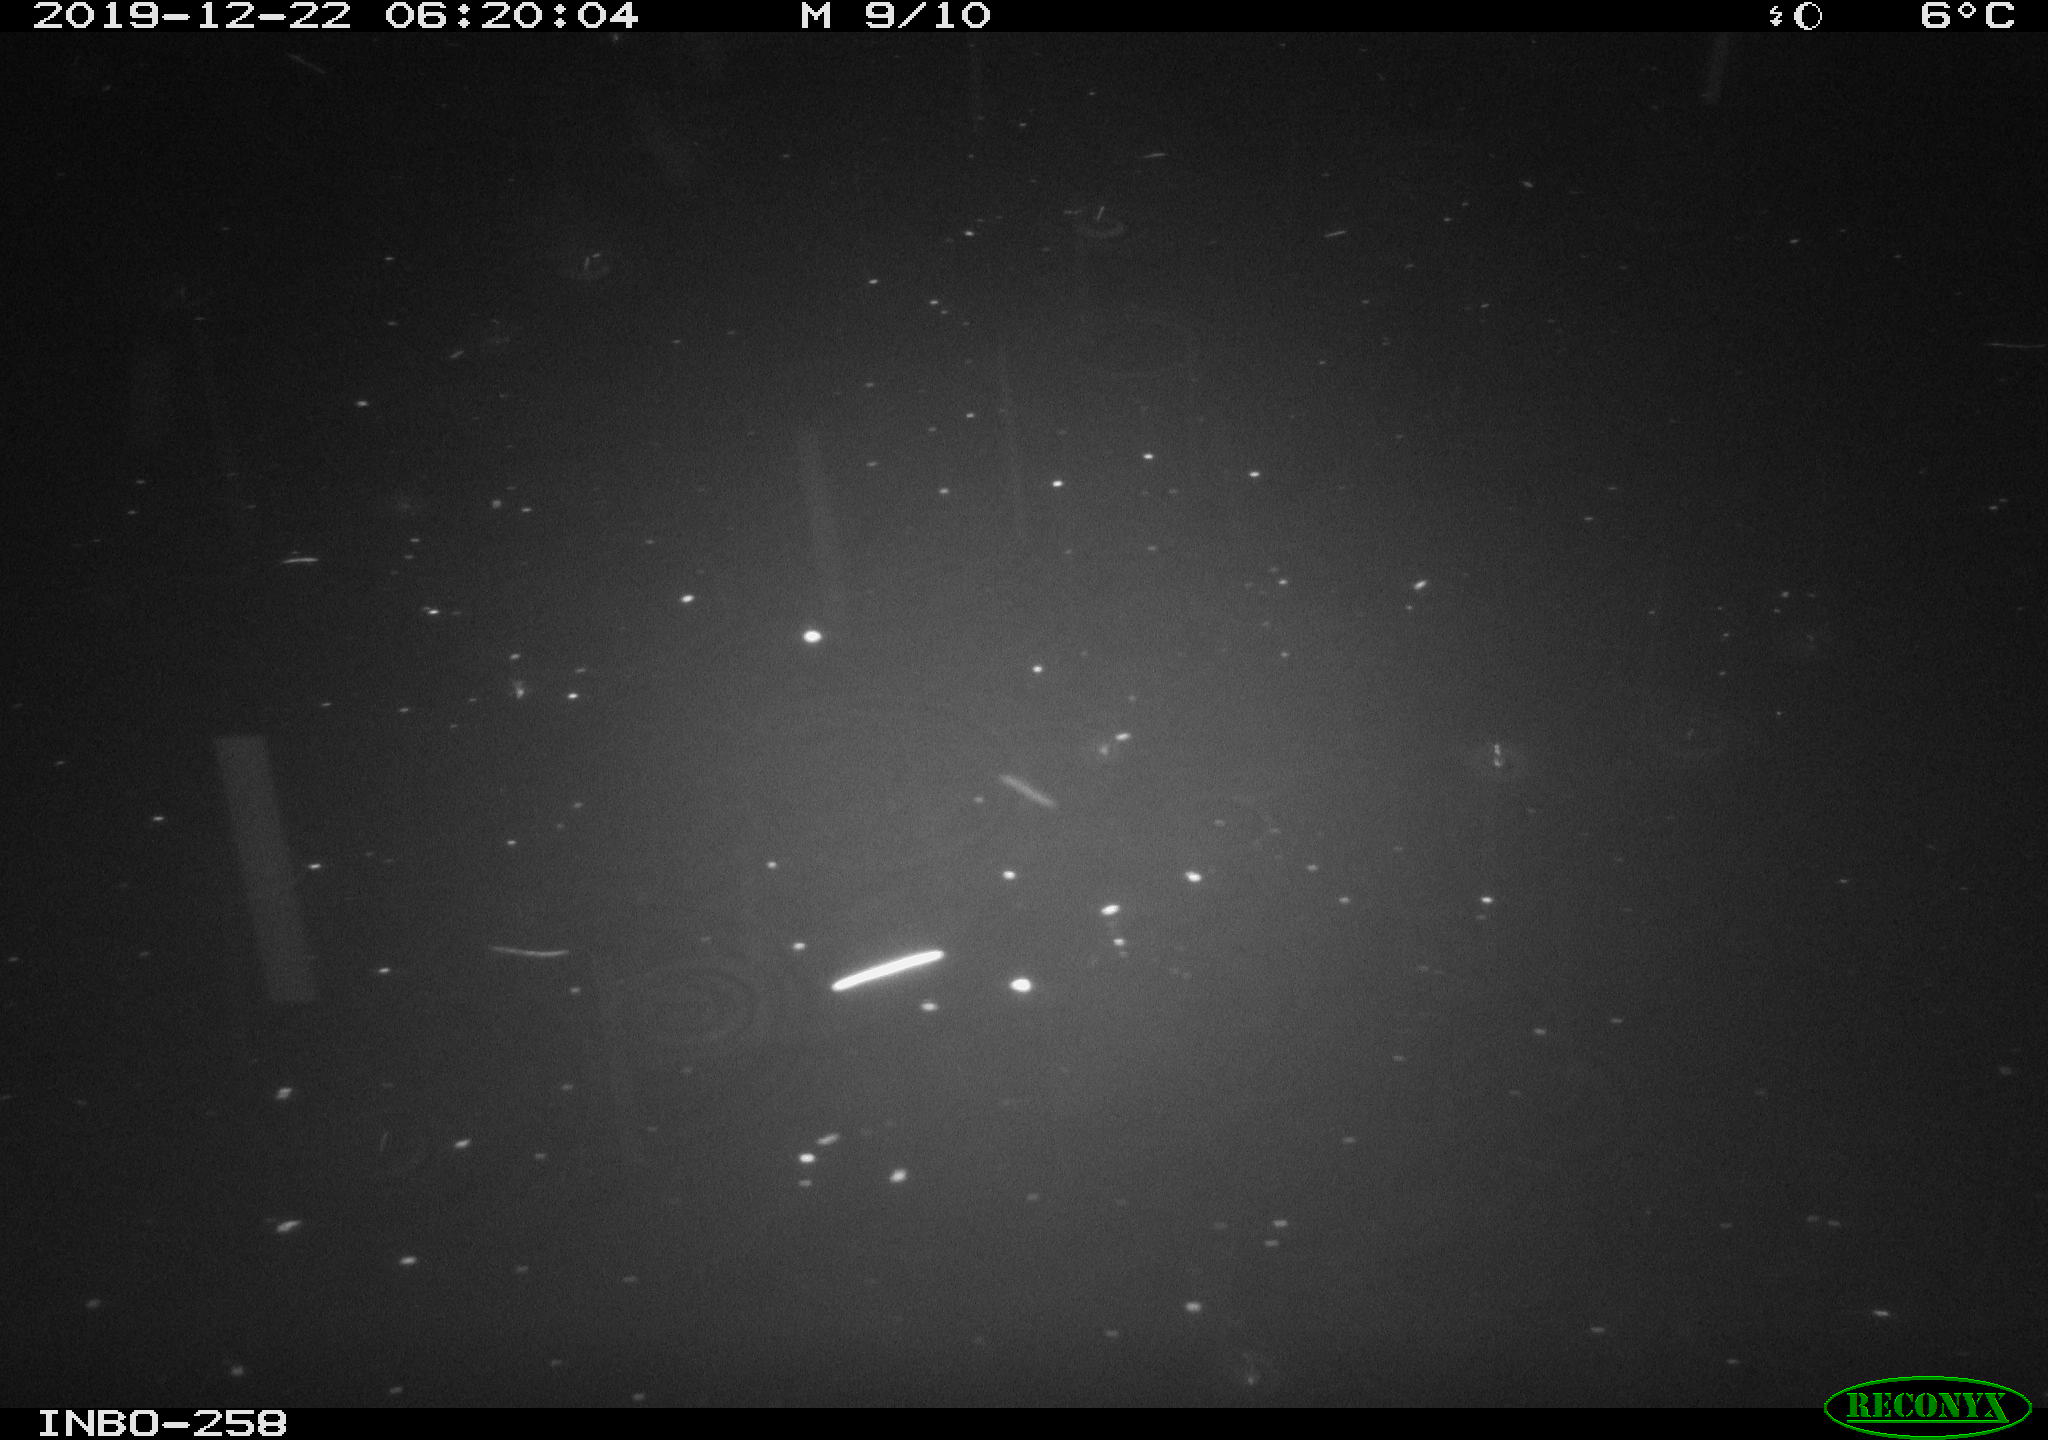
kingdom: Animalia
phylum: Chordata
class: Aves
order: Anseriformes
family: Anatidae
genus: Anas
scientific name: Anas platyrhynchos
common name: Mallard
